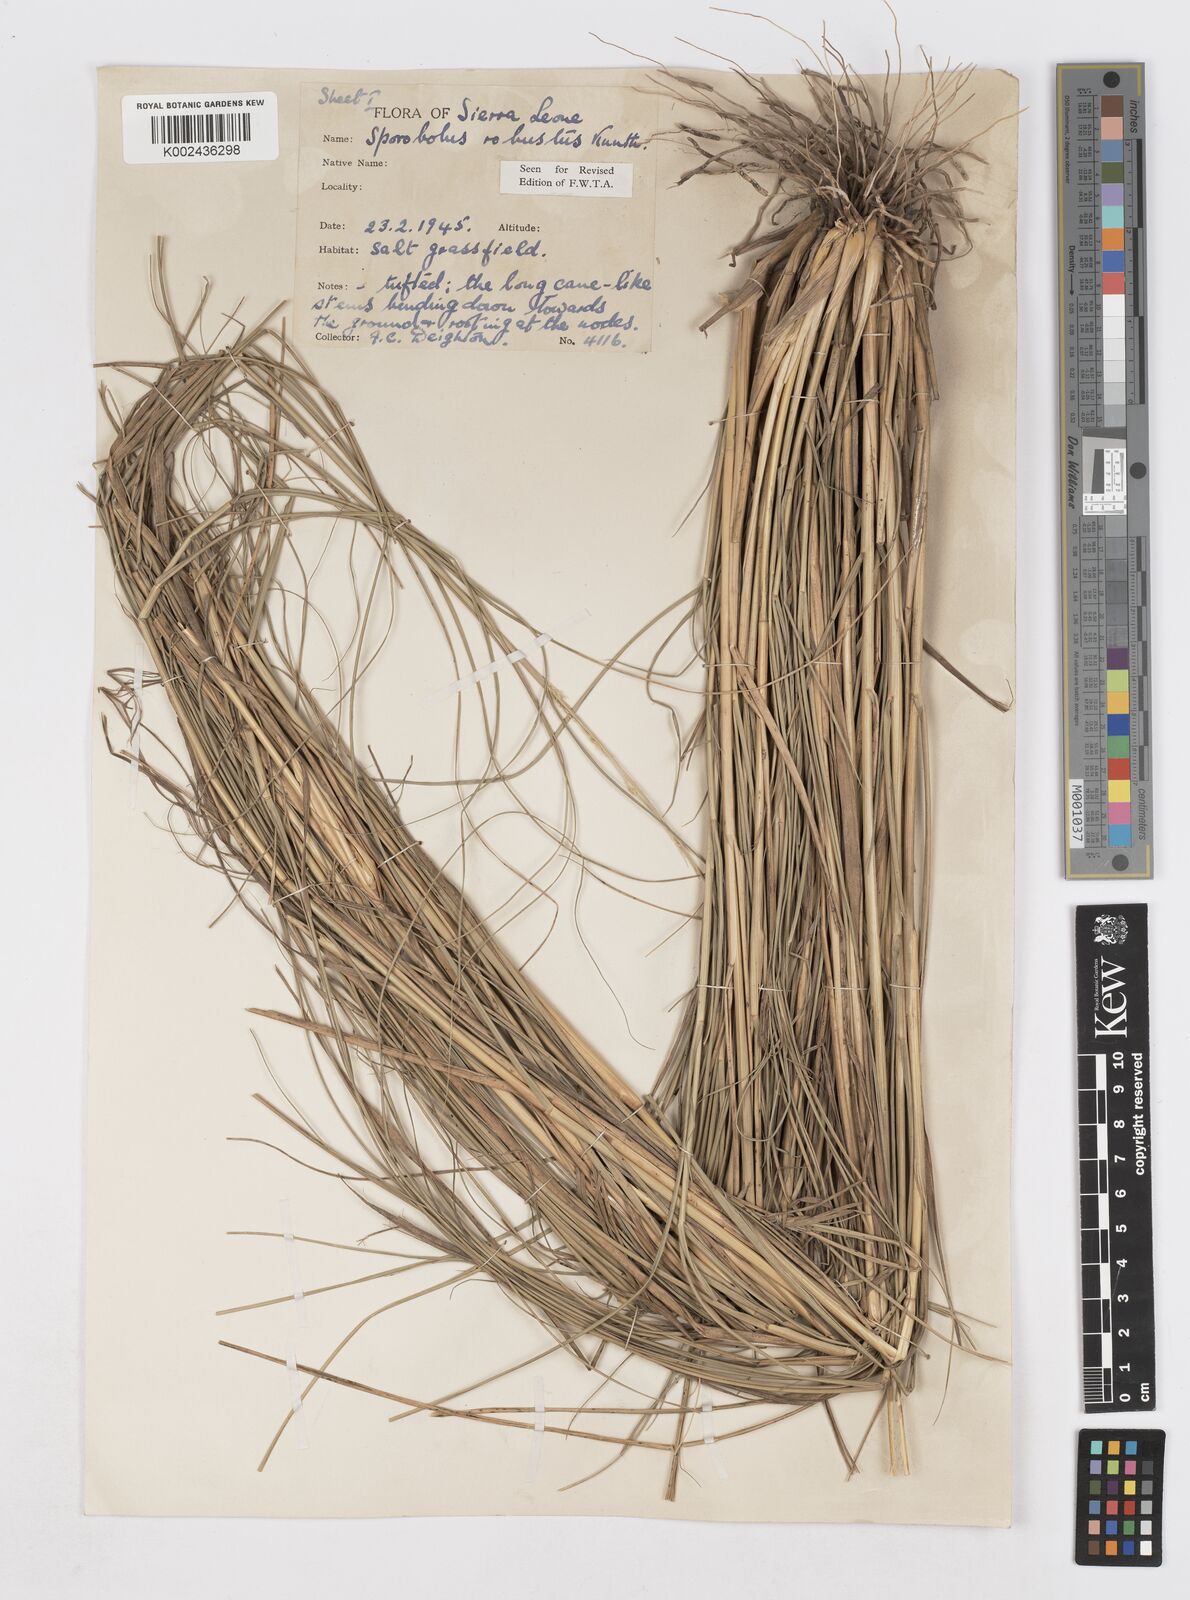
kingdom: Plantae
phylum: Tracheophyta
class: Liliopsida
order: Poales
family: Poaceae
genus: Sporobolus
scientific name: Sporobolus robustus
